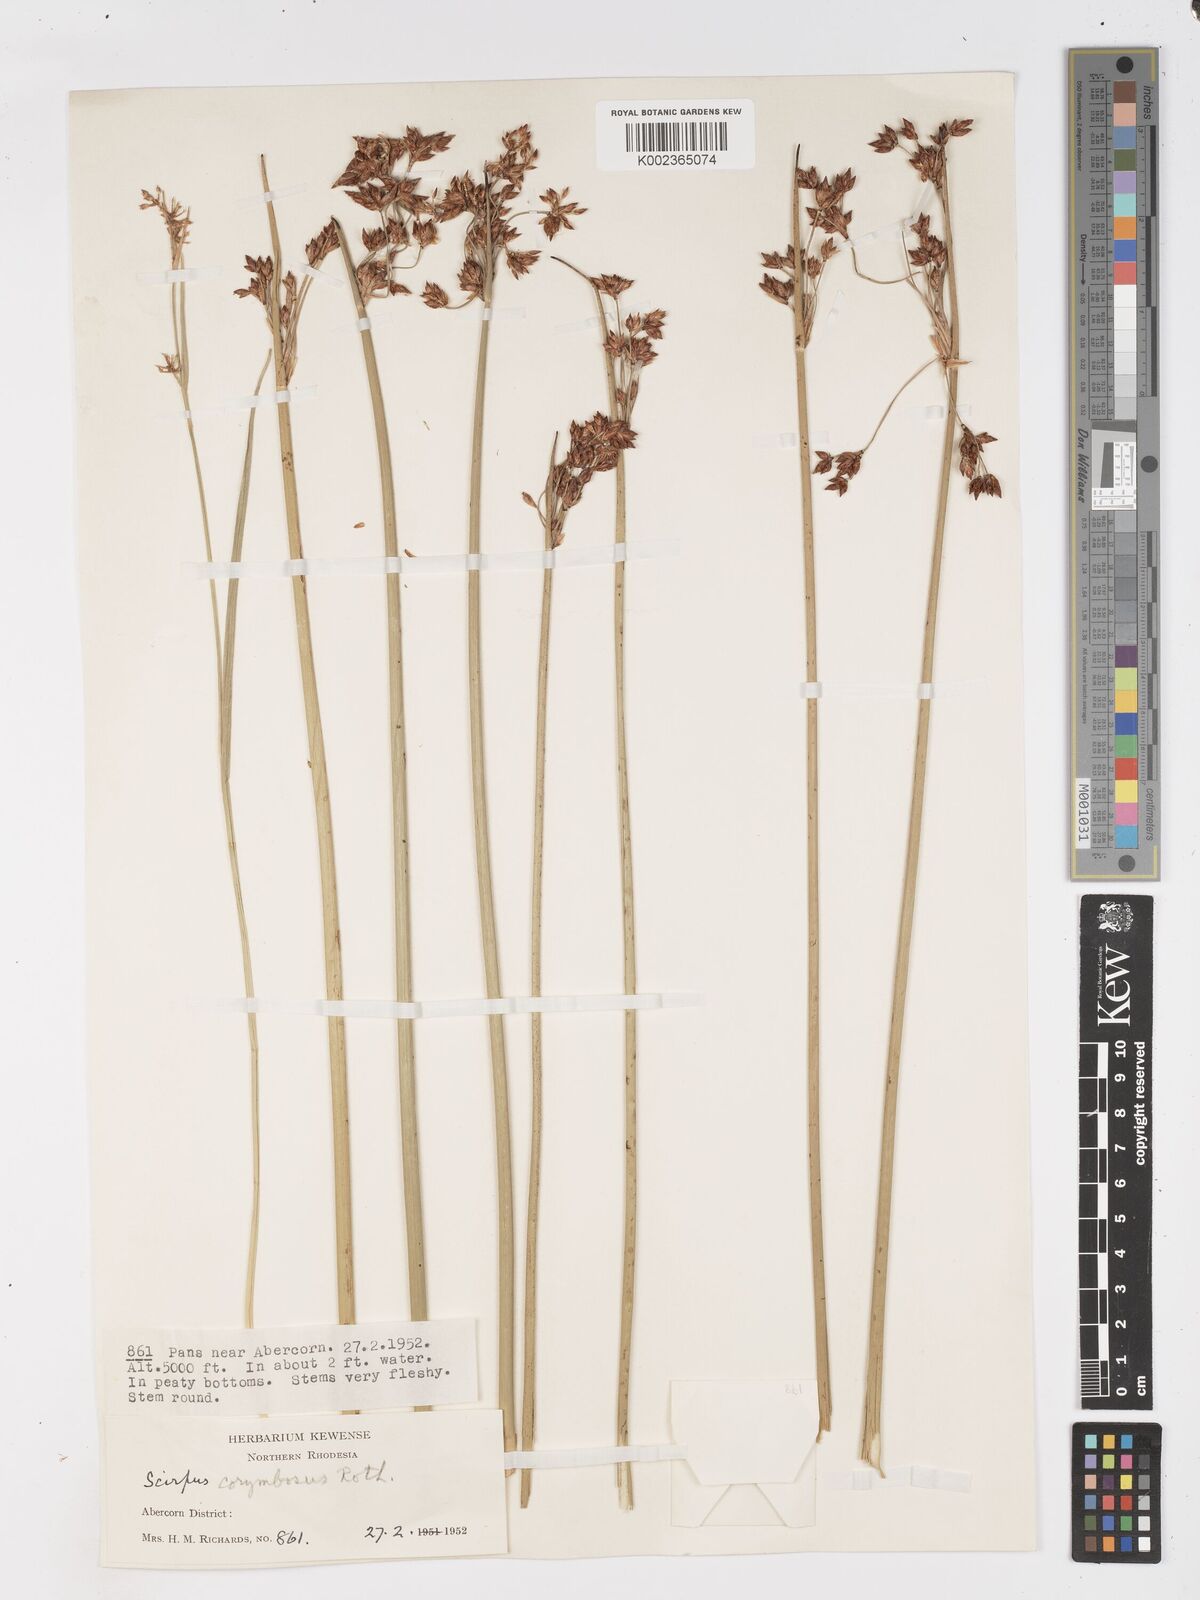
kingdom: Plantae
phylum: Tracheophyta
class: Liliopsida
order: Poales
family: Cyperaceae
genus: Schoenoplectiella
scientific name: Schoenoplectiella corymbosa
